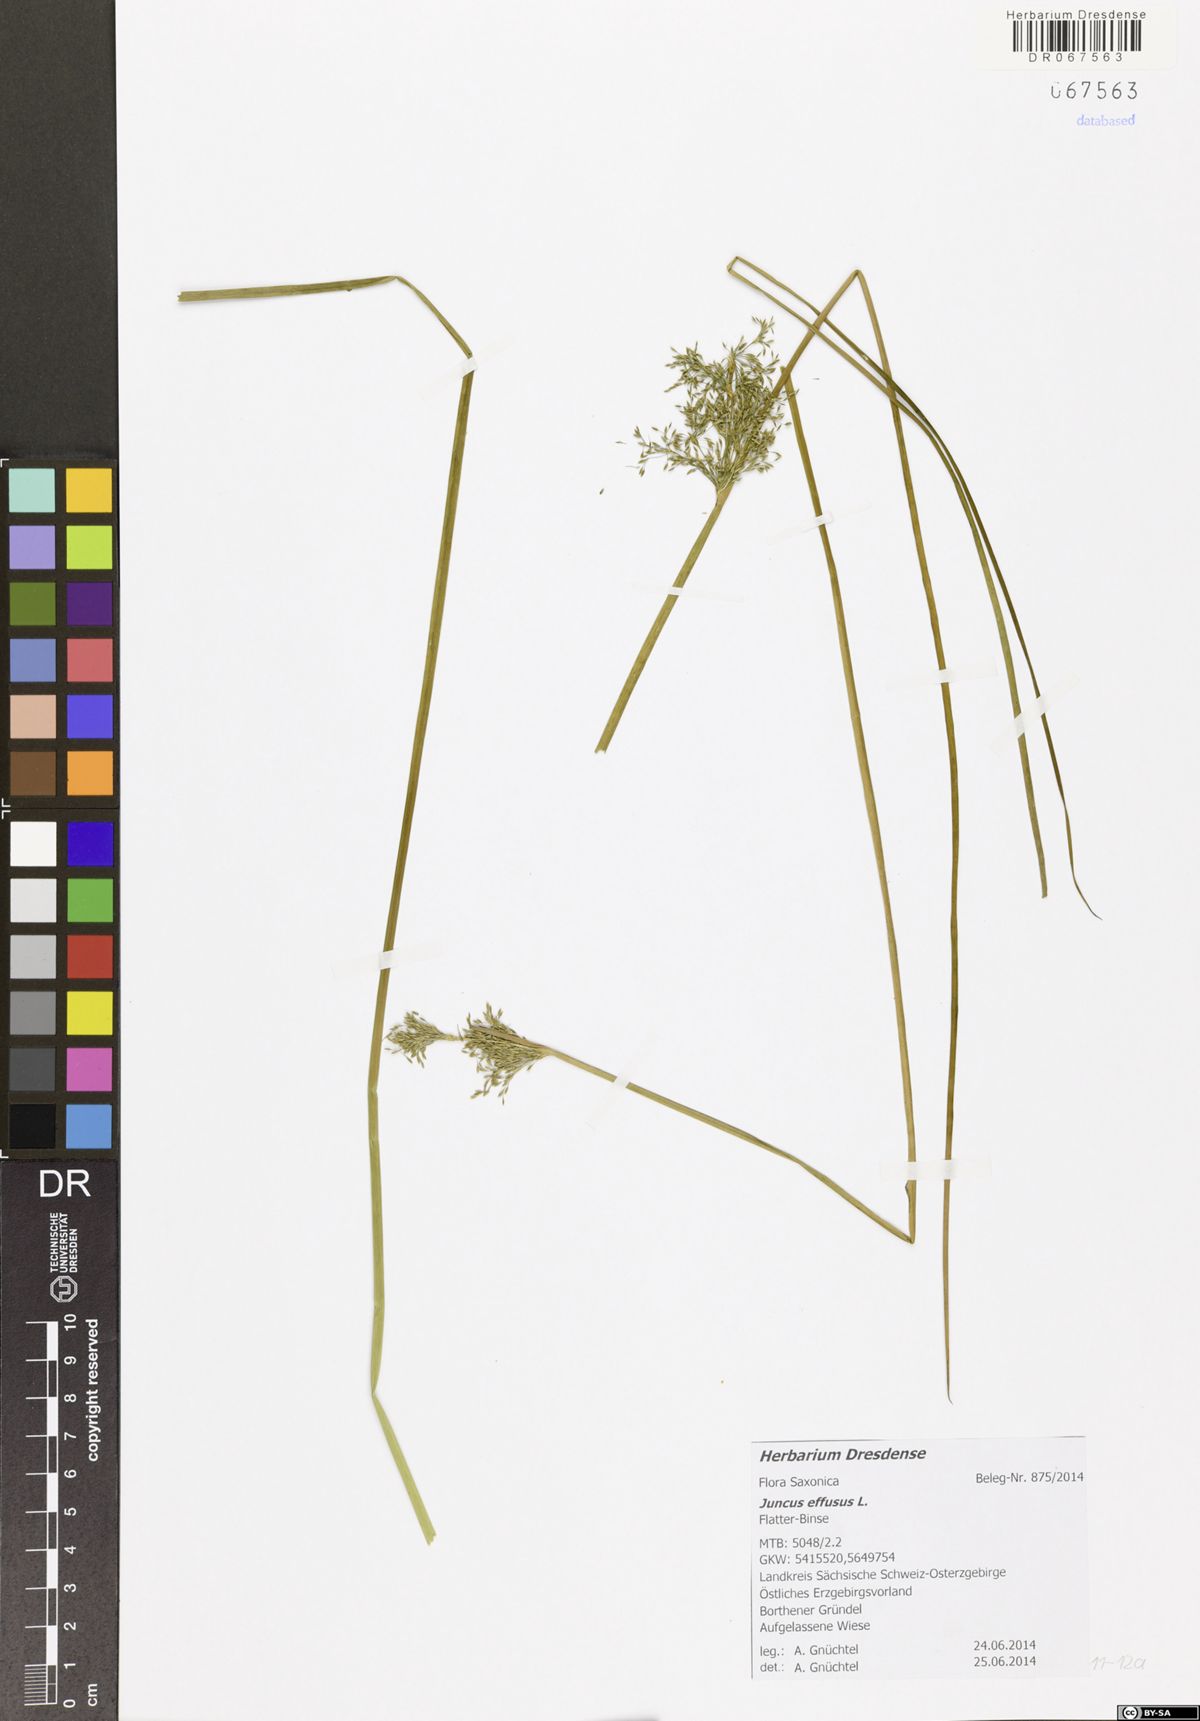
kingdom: Plantae
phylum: Tracheophyta
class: Liliopsida
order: Poales
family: Juncaceae
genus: Juncus
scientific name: Juncus effusus
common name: Soft rush
